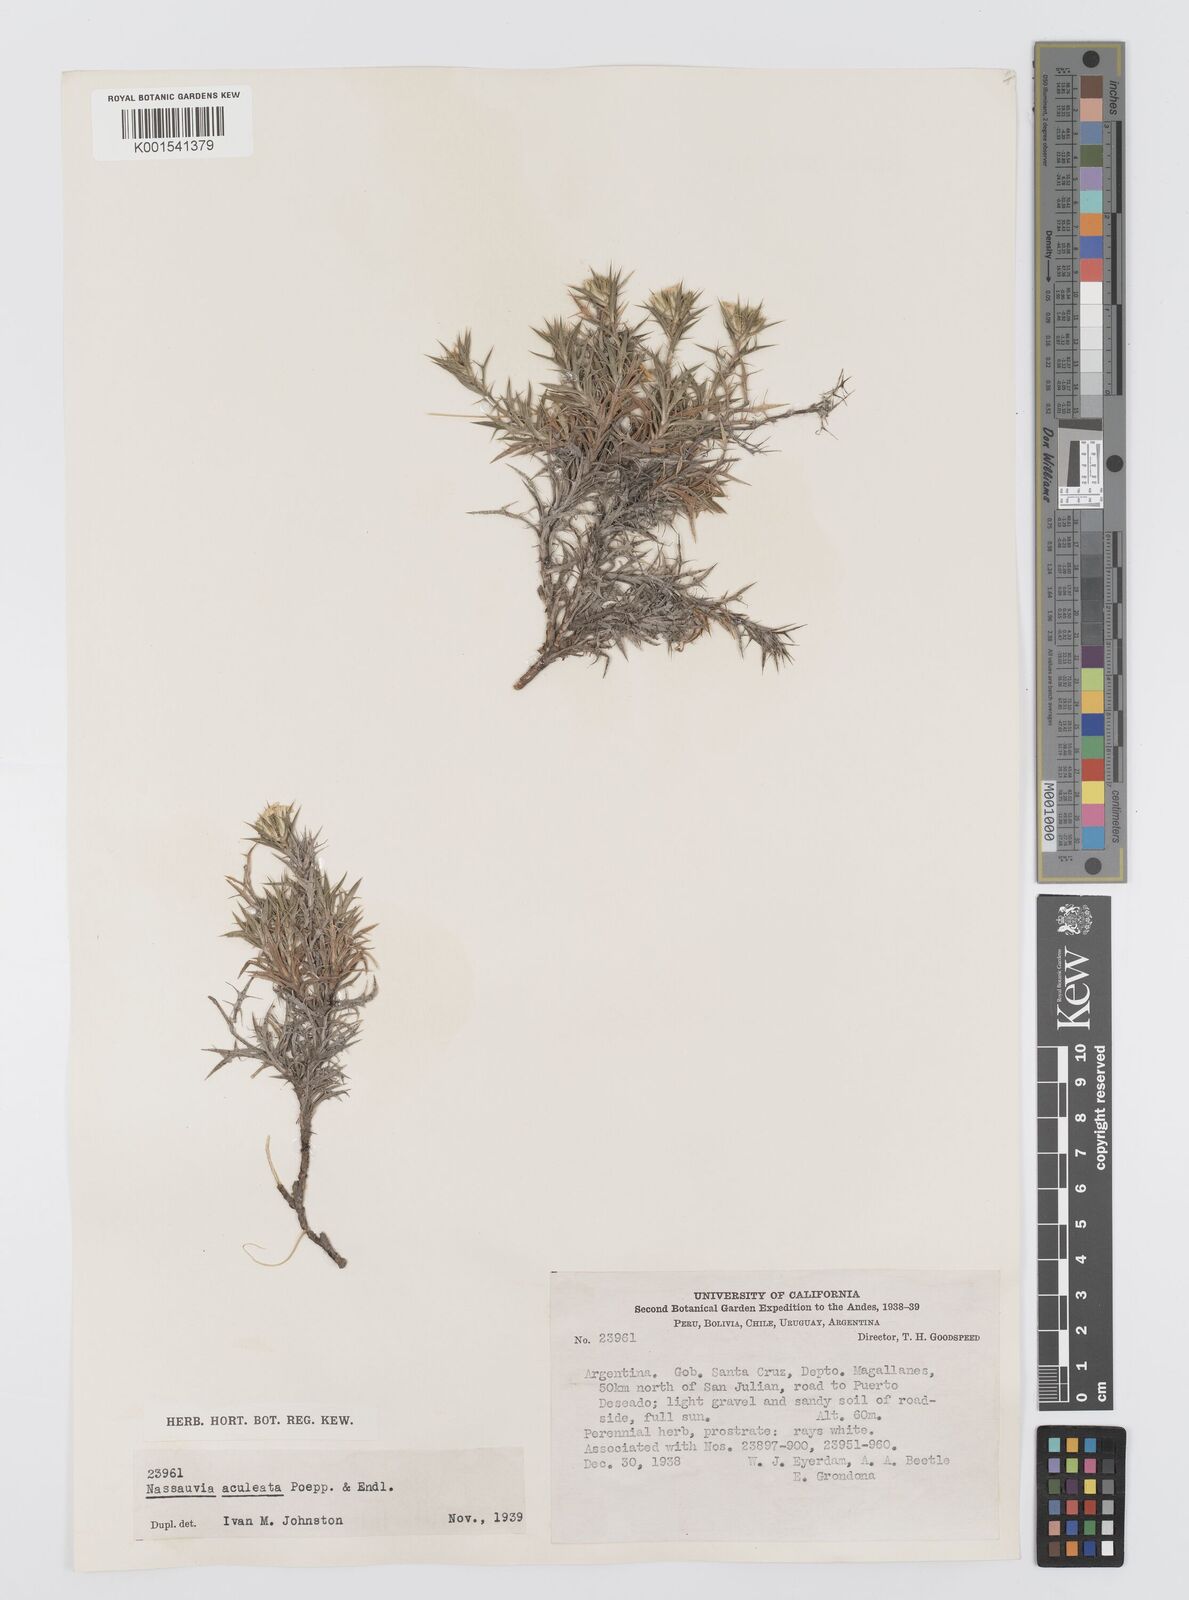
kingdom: Plantae
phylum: Tracheophyta
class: Magnoliopsida
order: Asterales
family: Asteraceae
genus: Nassauvia
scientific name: Nassauvia aculeata
